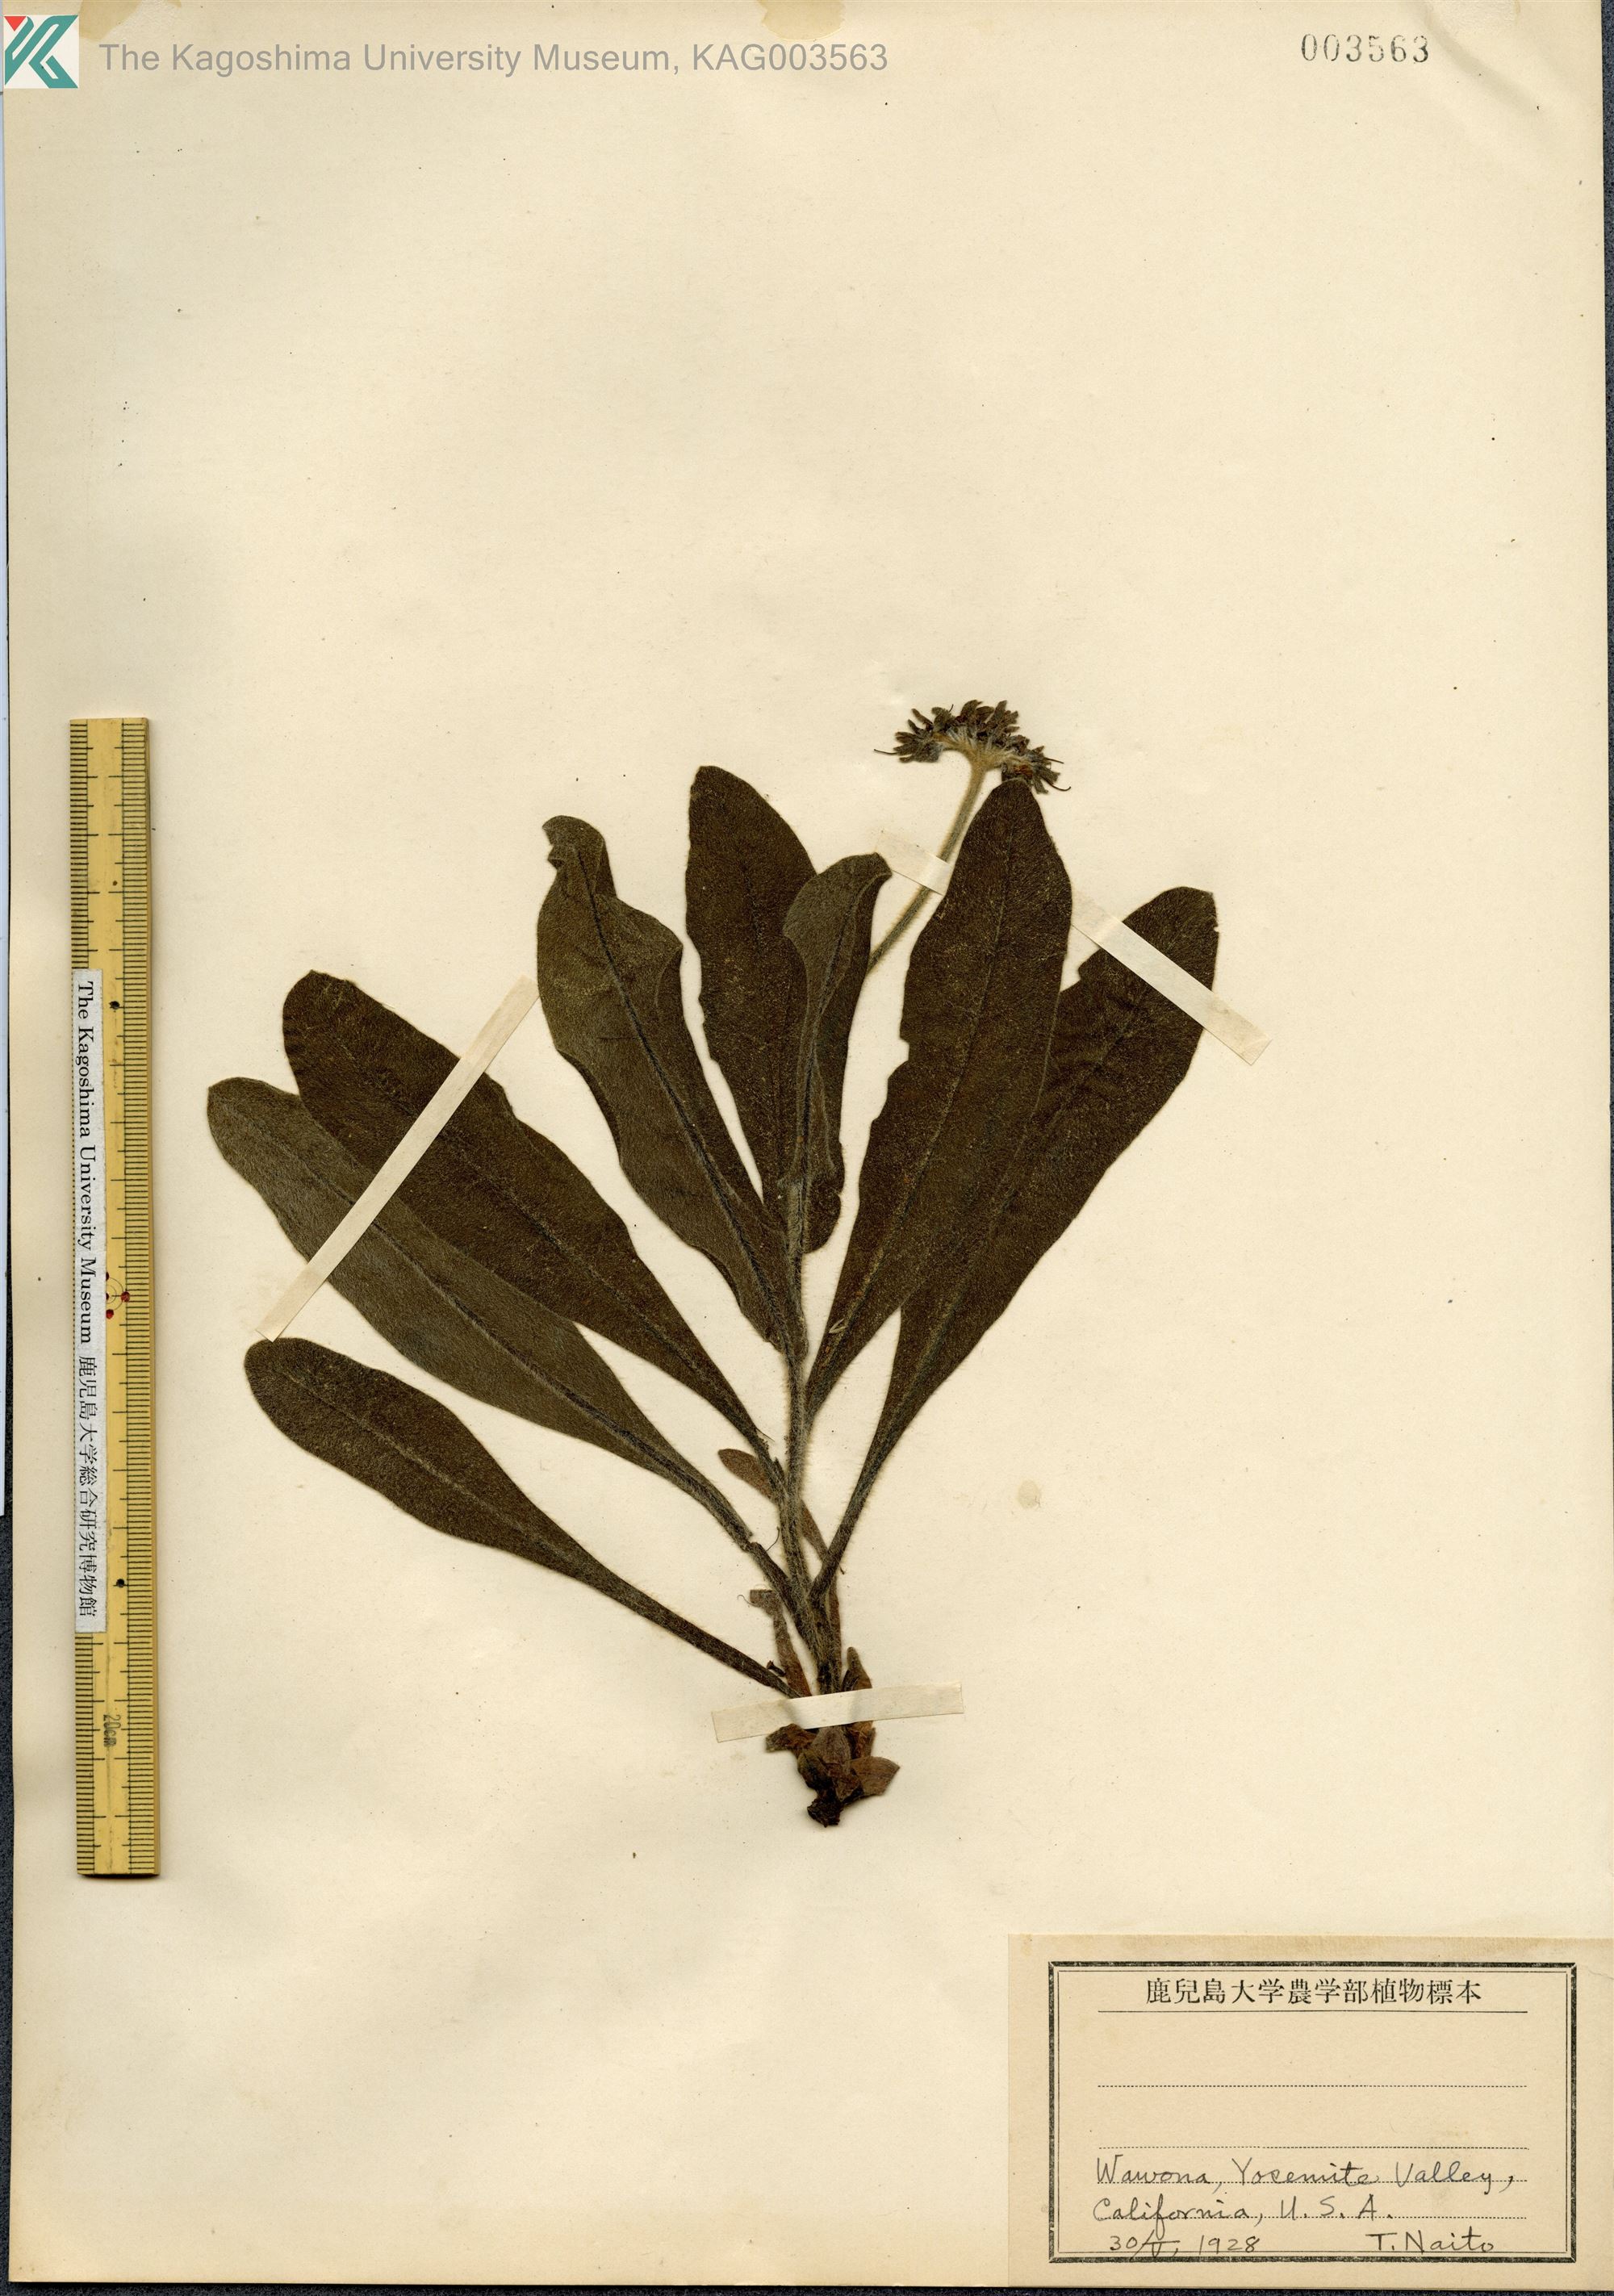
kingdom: Plantae
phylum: Tracheophyta
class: Magnoliopsida
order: Boraginales
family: Boraginaceae
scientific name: Boraginaceae
